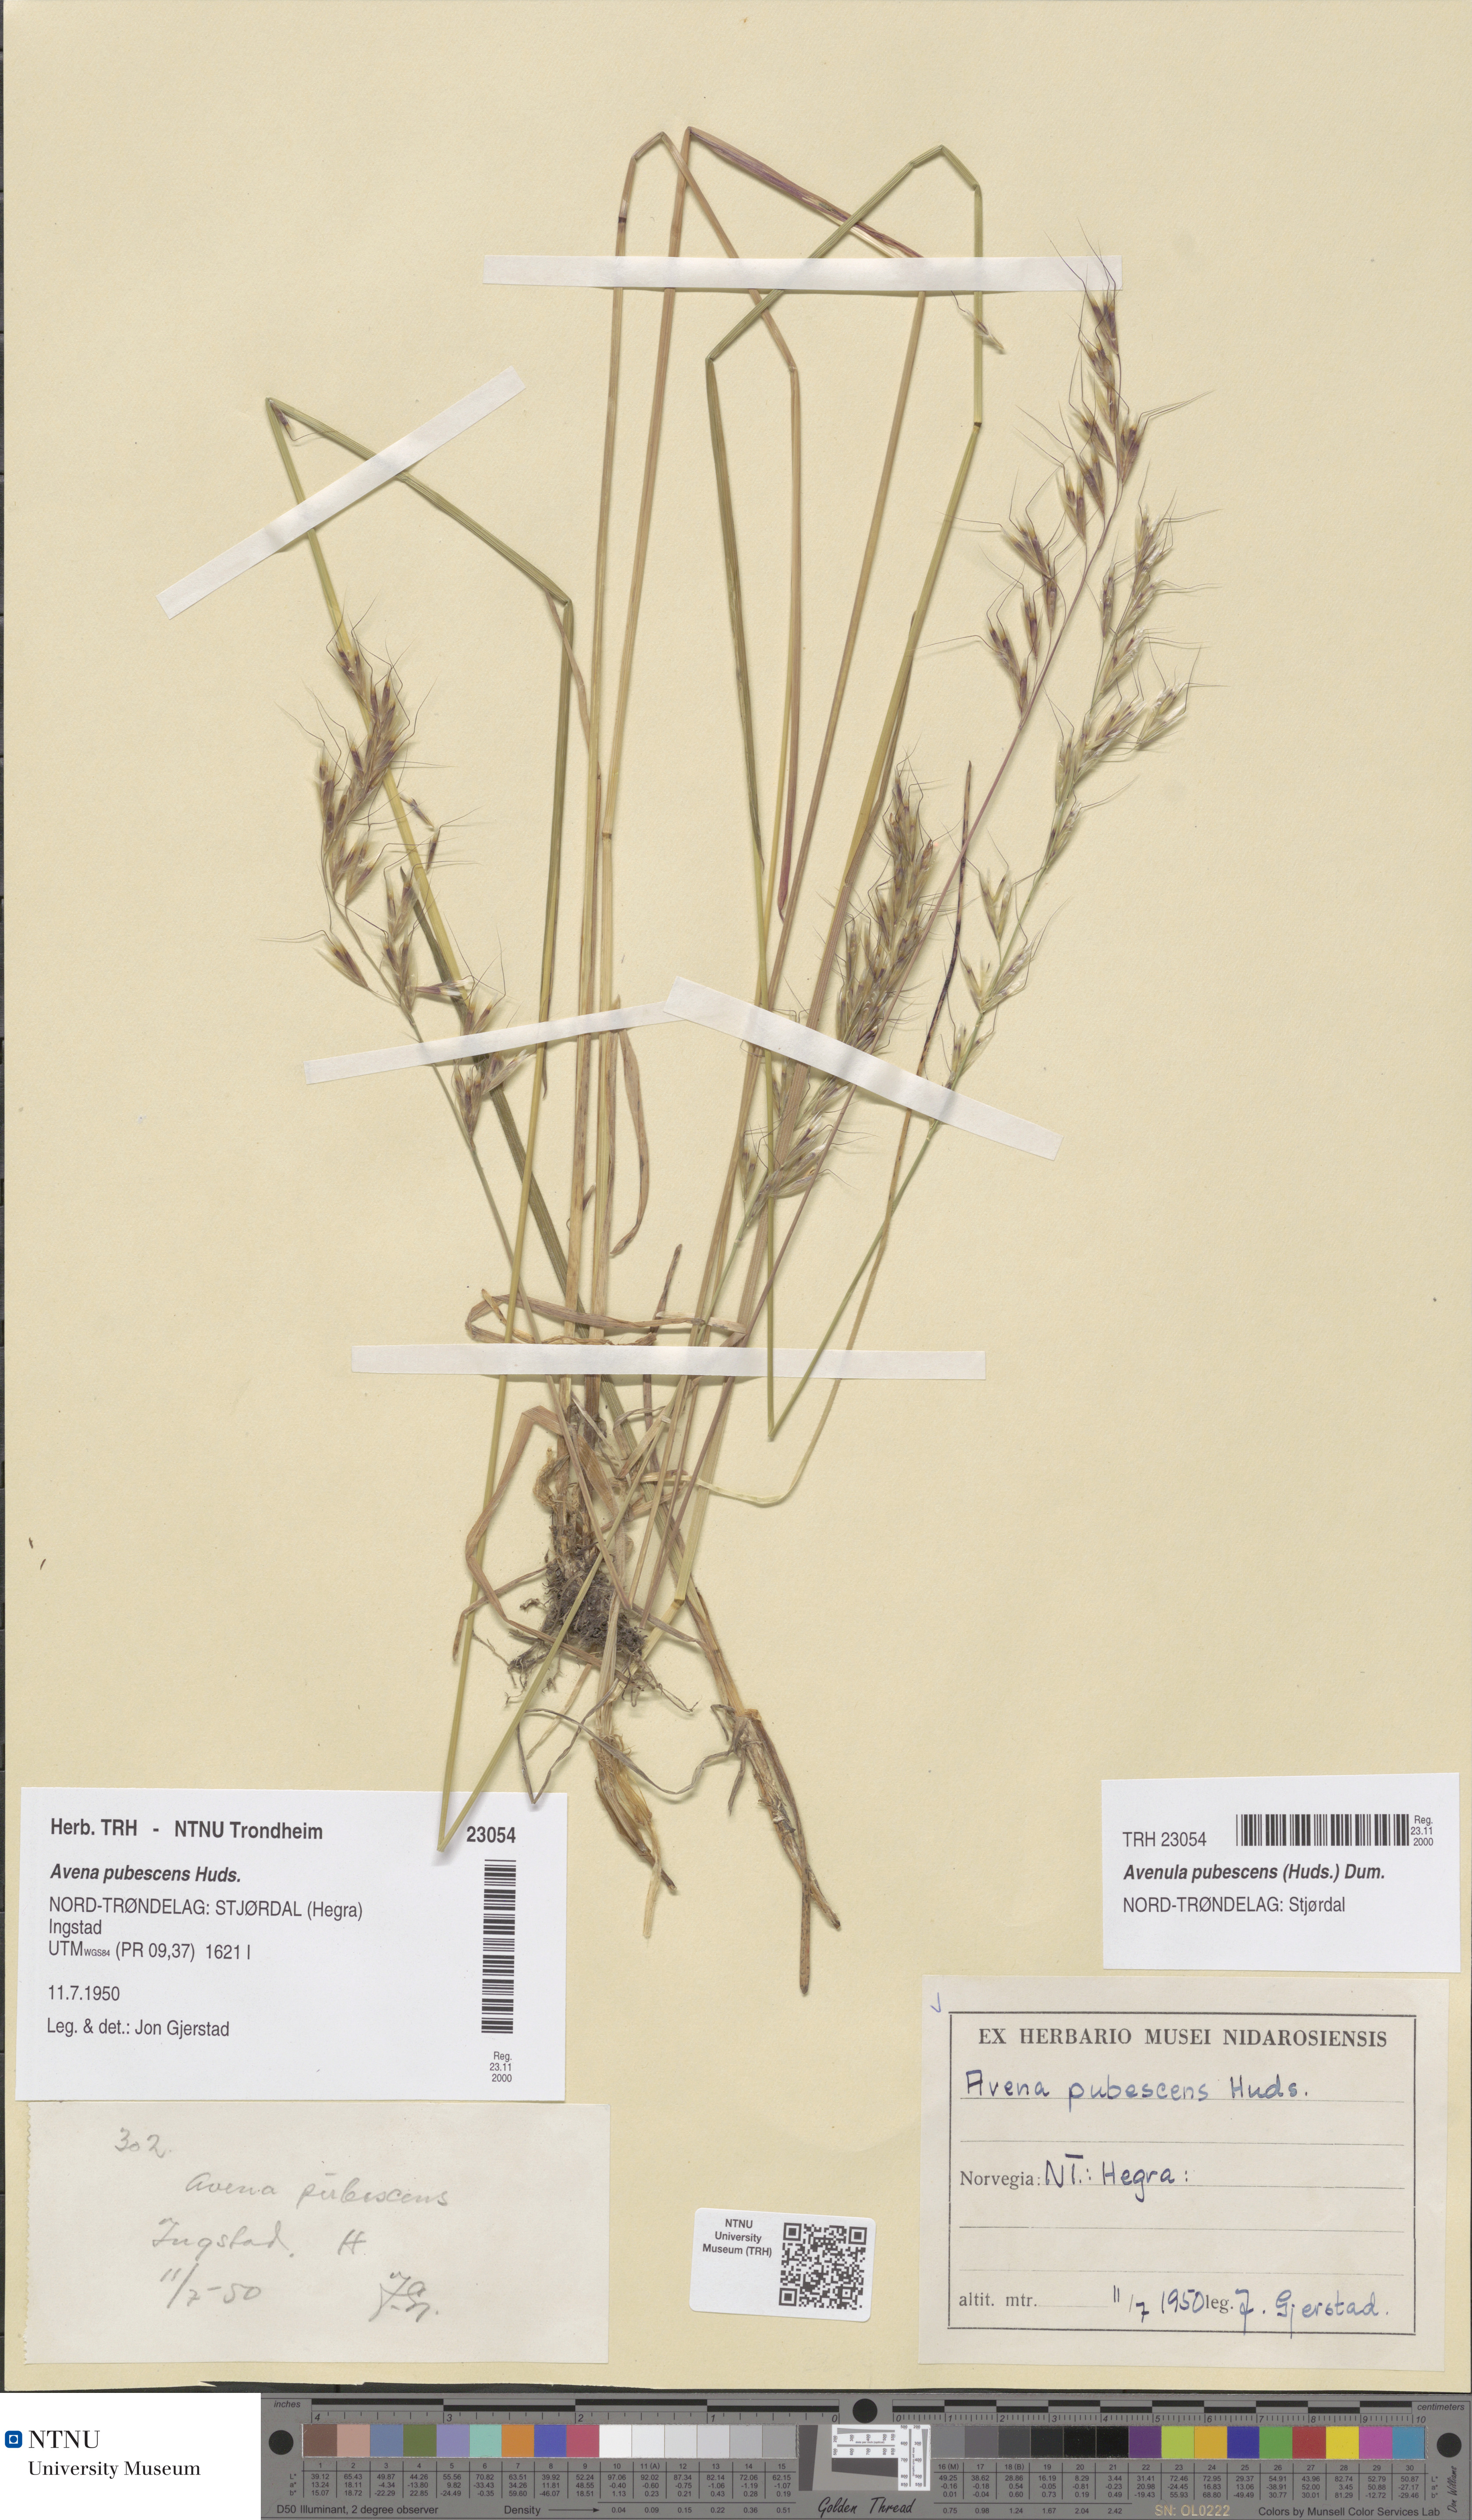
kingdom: Plantae
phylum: Tracheophyta
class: Liliopsida
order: Poales
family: Poaceae
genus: Avenula
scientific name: Avenula pubescens
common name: Downy alpine oatgrass
